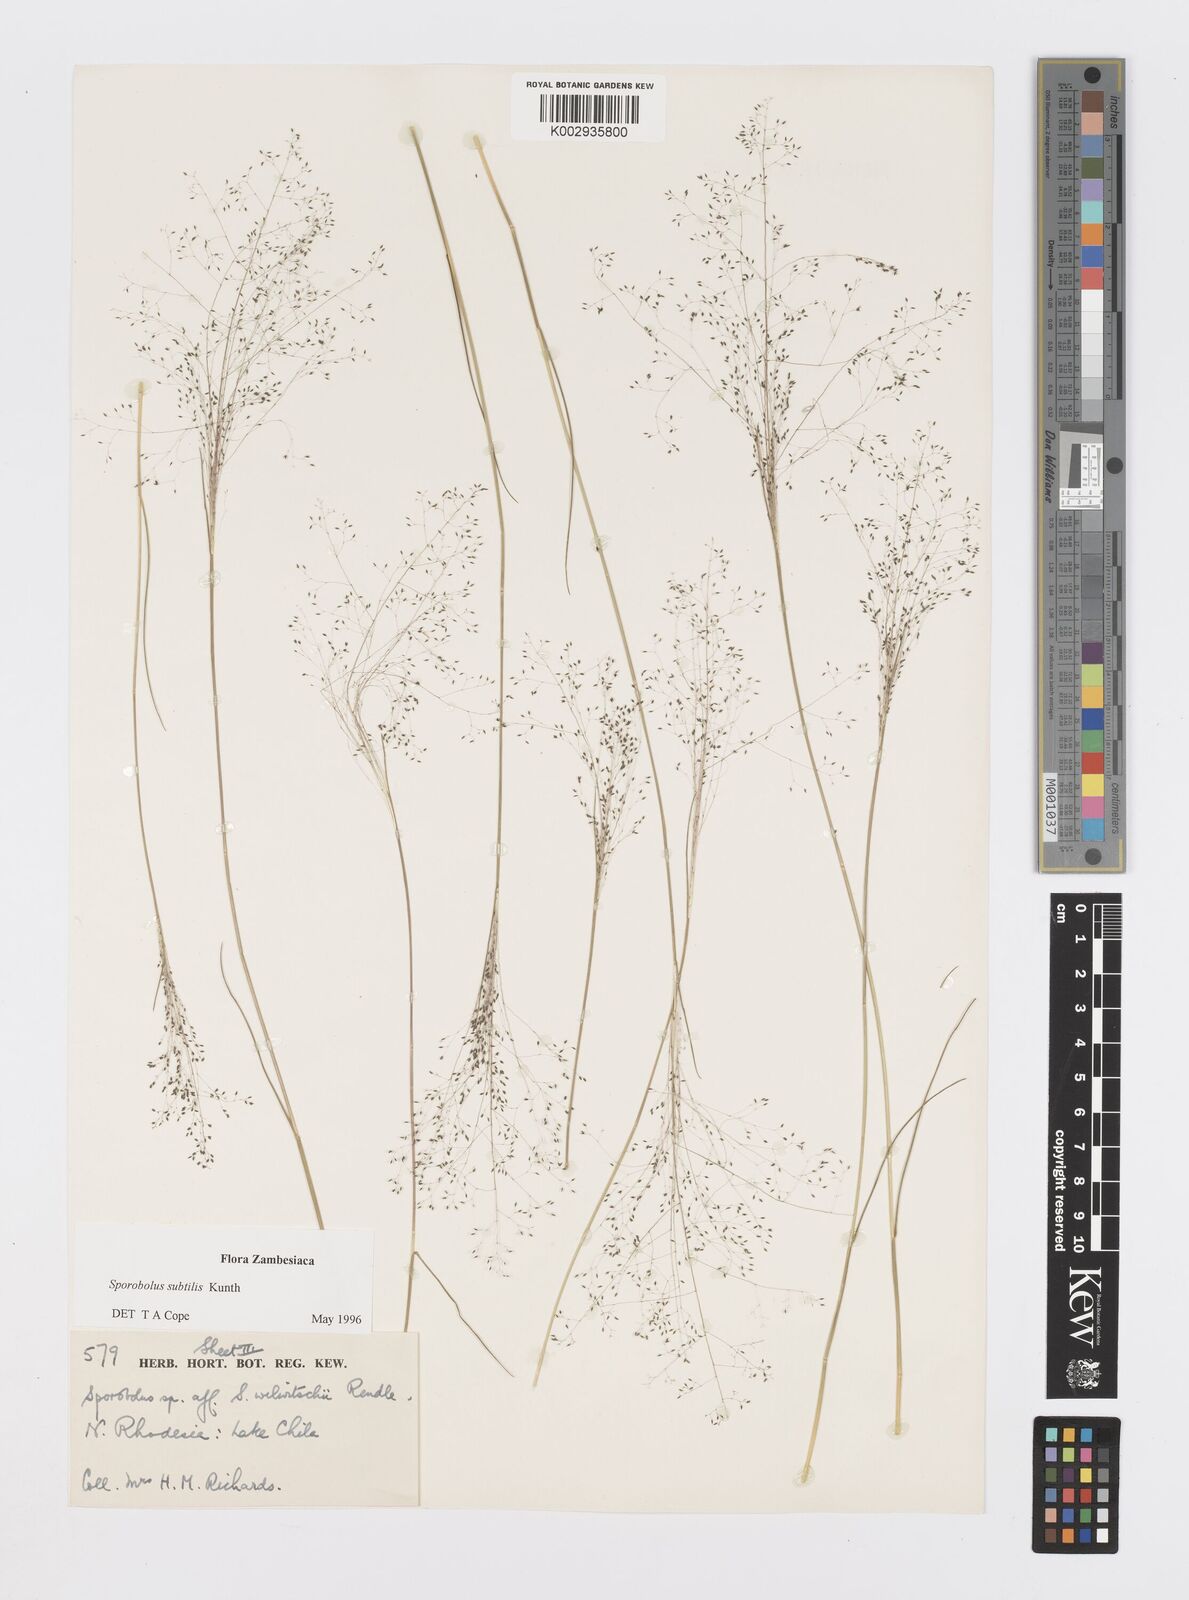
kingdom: Plantae
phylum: Tracheophyta
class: Liliopsida
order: Poales
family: Poaceae
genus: Sporobolus
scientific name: Sporobolus subtilis
